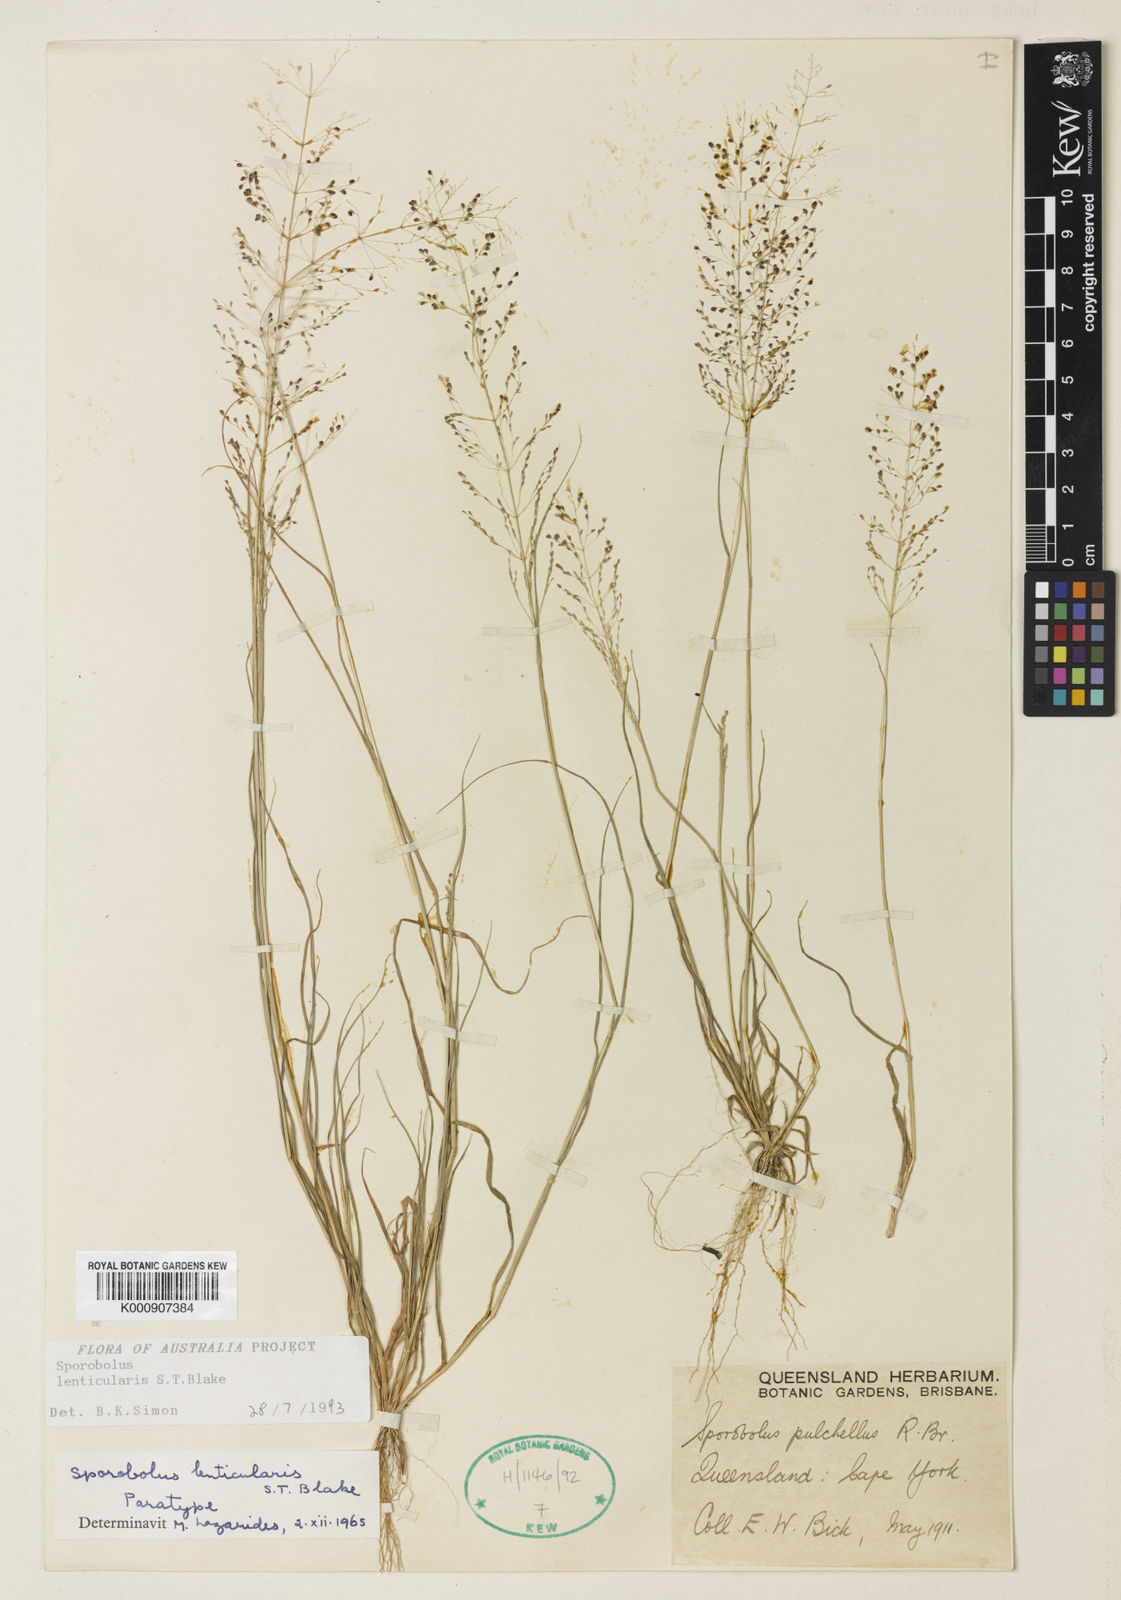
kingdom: Plantae
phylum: Tracheophyta
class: Liliopsida
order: Poales
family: Poaceae
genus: Sporobolus
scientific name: Sporobolus lenticularis
